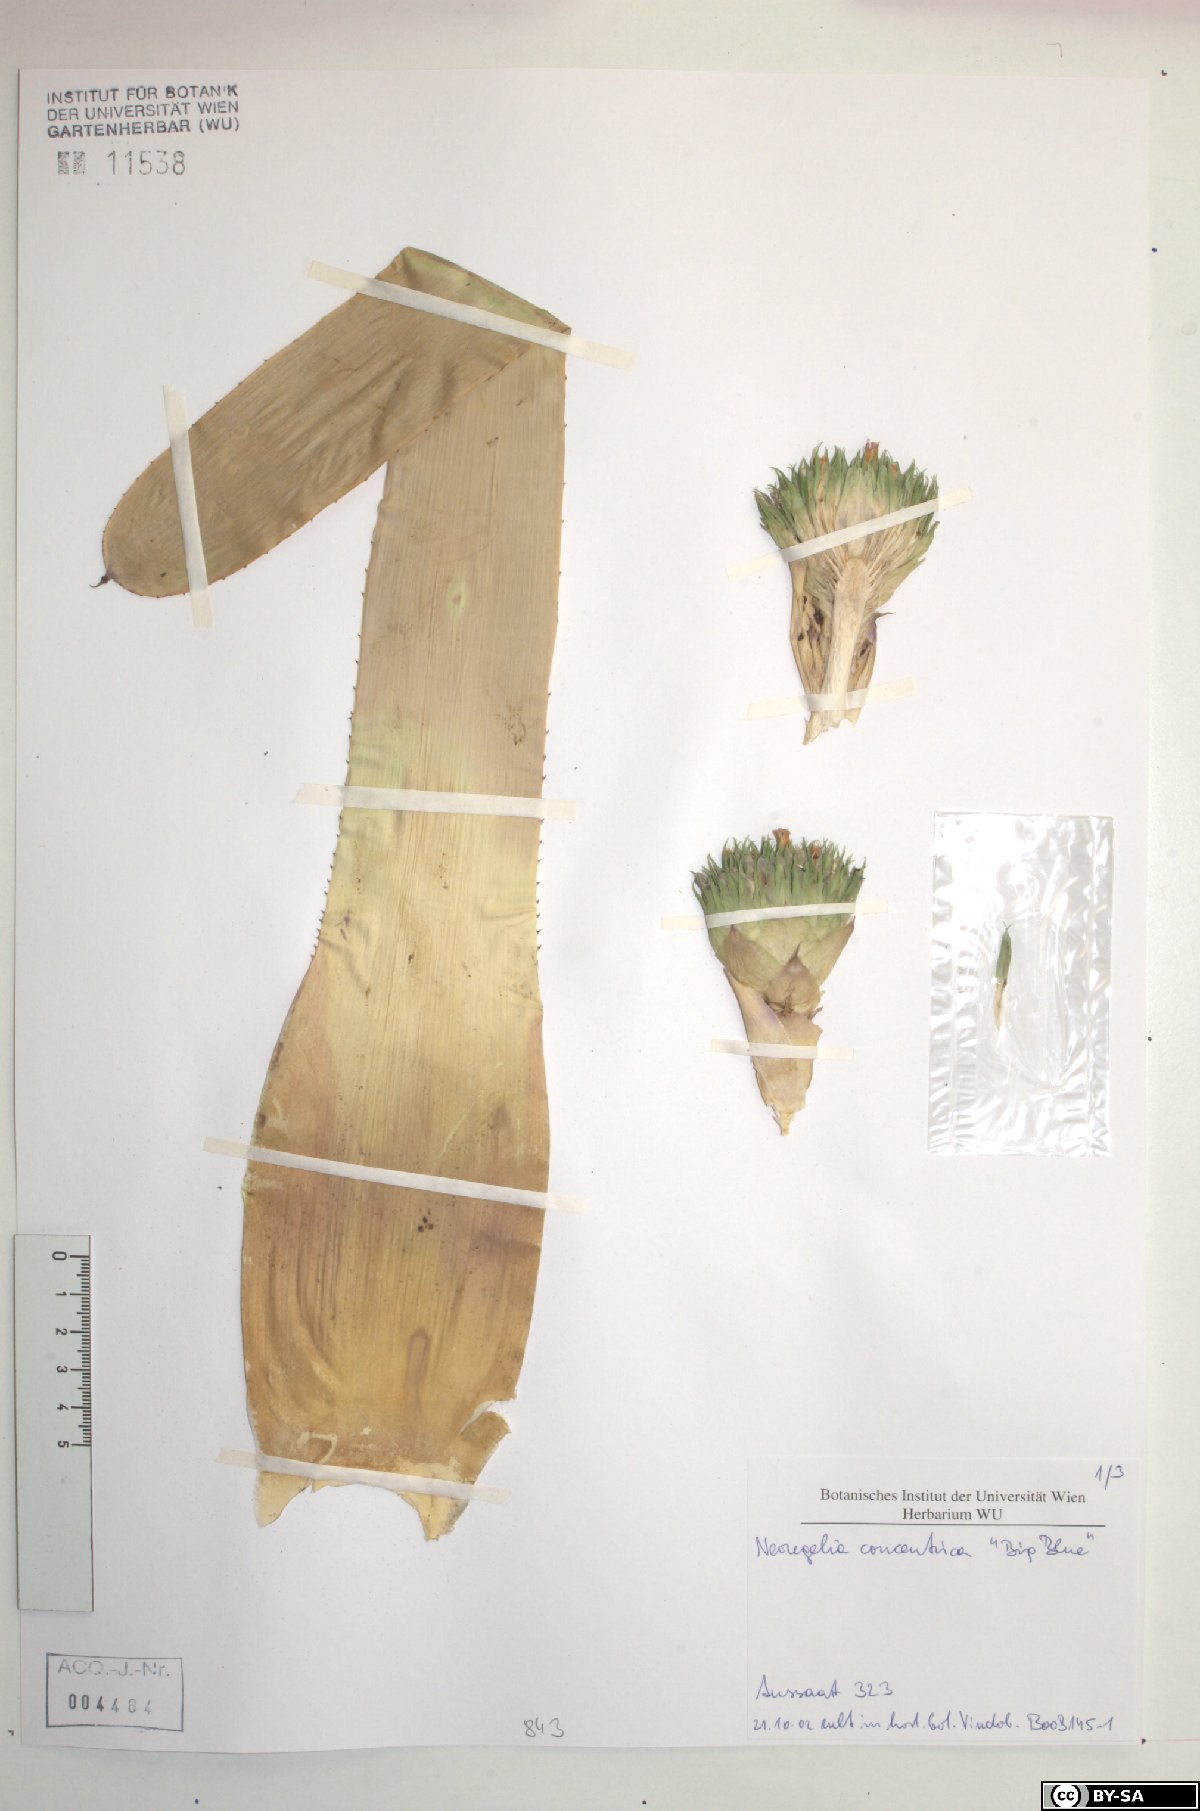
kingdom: Plantae
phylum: Tracheophyta
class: Liliopsida
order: Poales
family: Bromeliaceae
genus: Neoregelia
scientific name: Neoregelia concentrica
